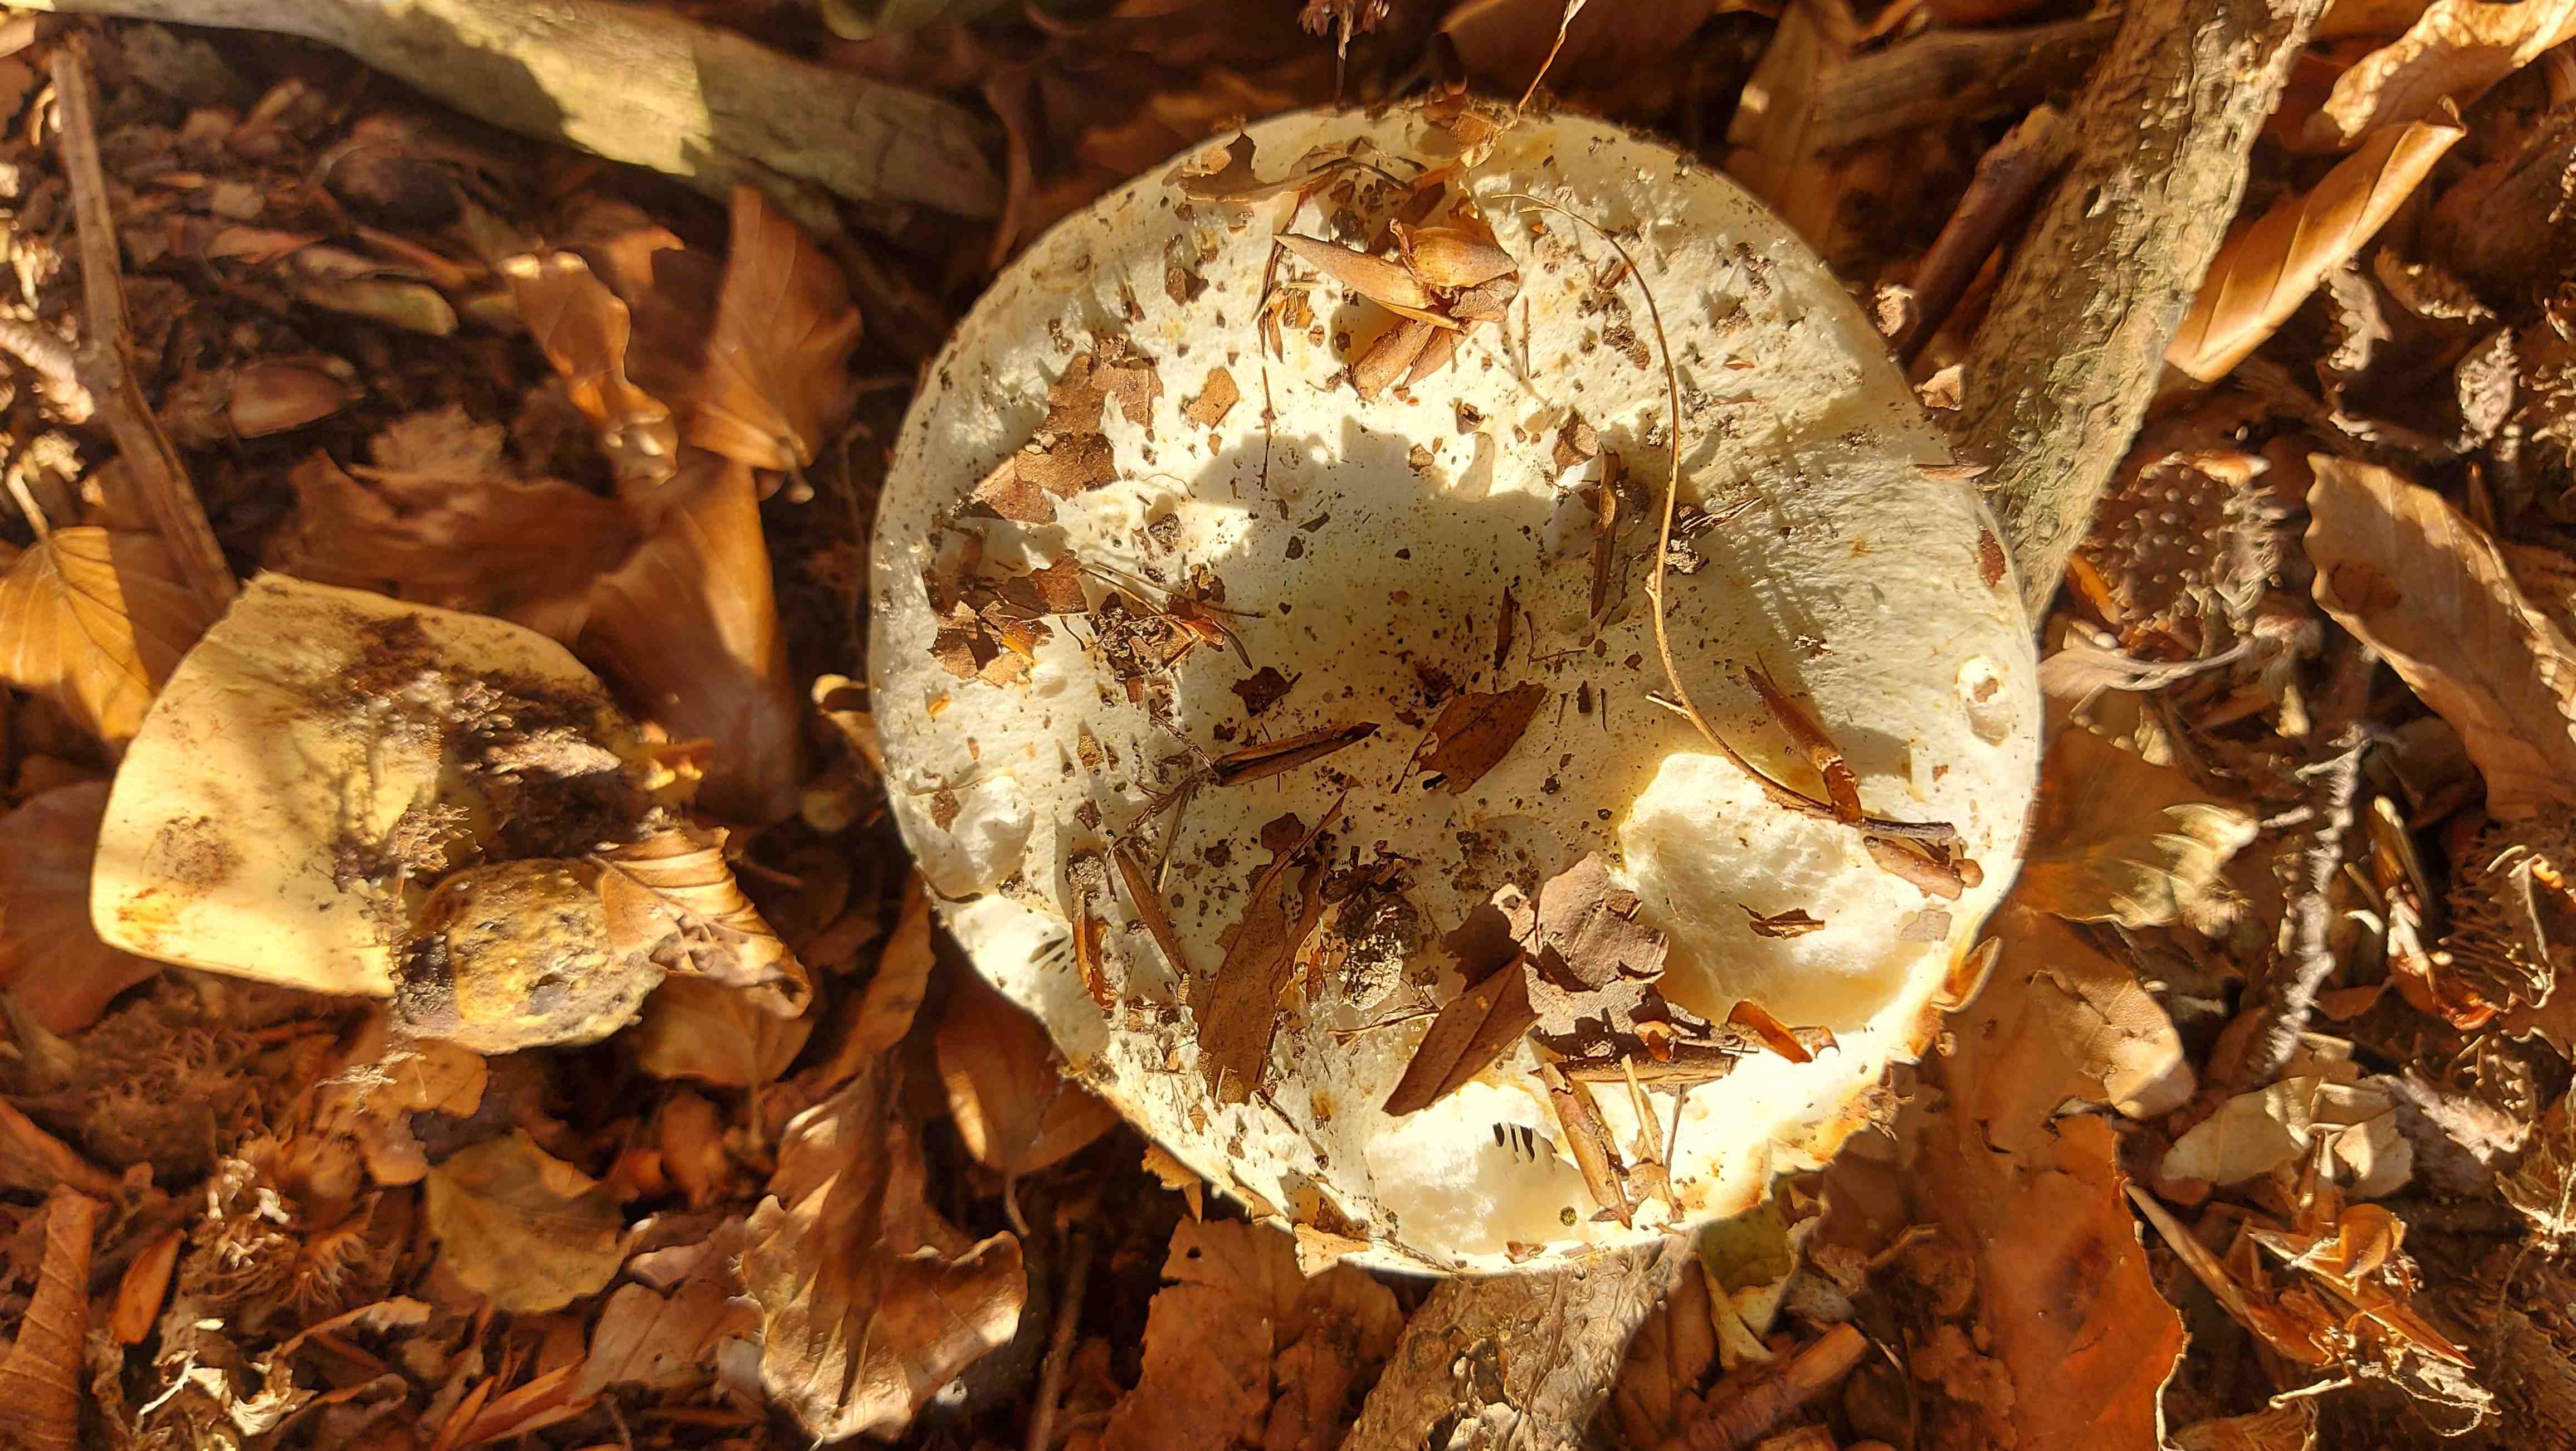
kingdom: Fungi
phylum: Basidiomycota
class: Agaricomycetes
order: Russulales
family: Russulaceae
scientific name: Russulaceae
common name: skørhatfamilien
